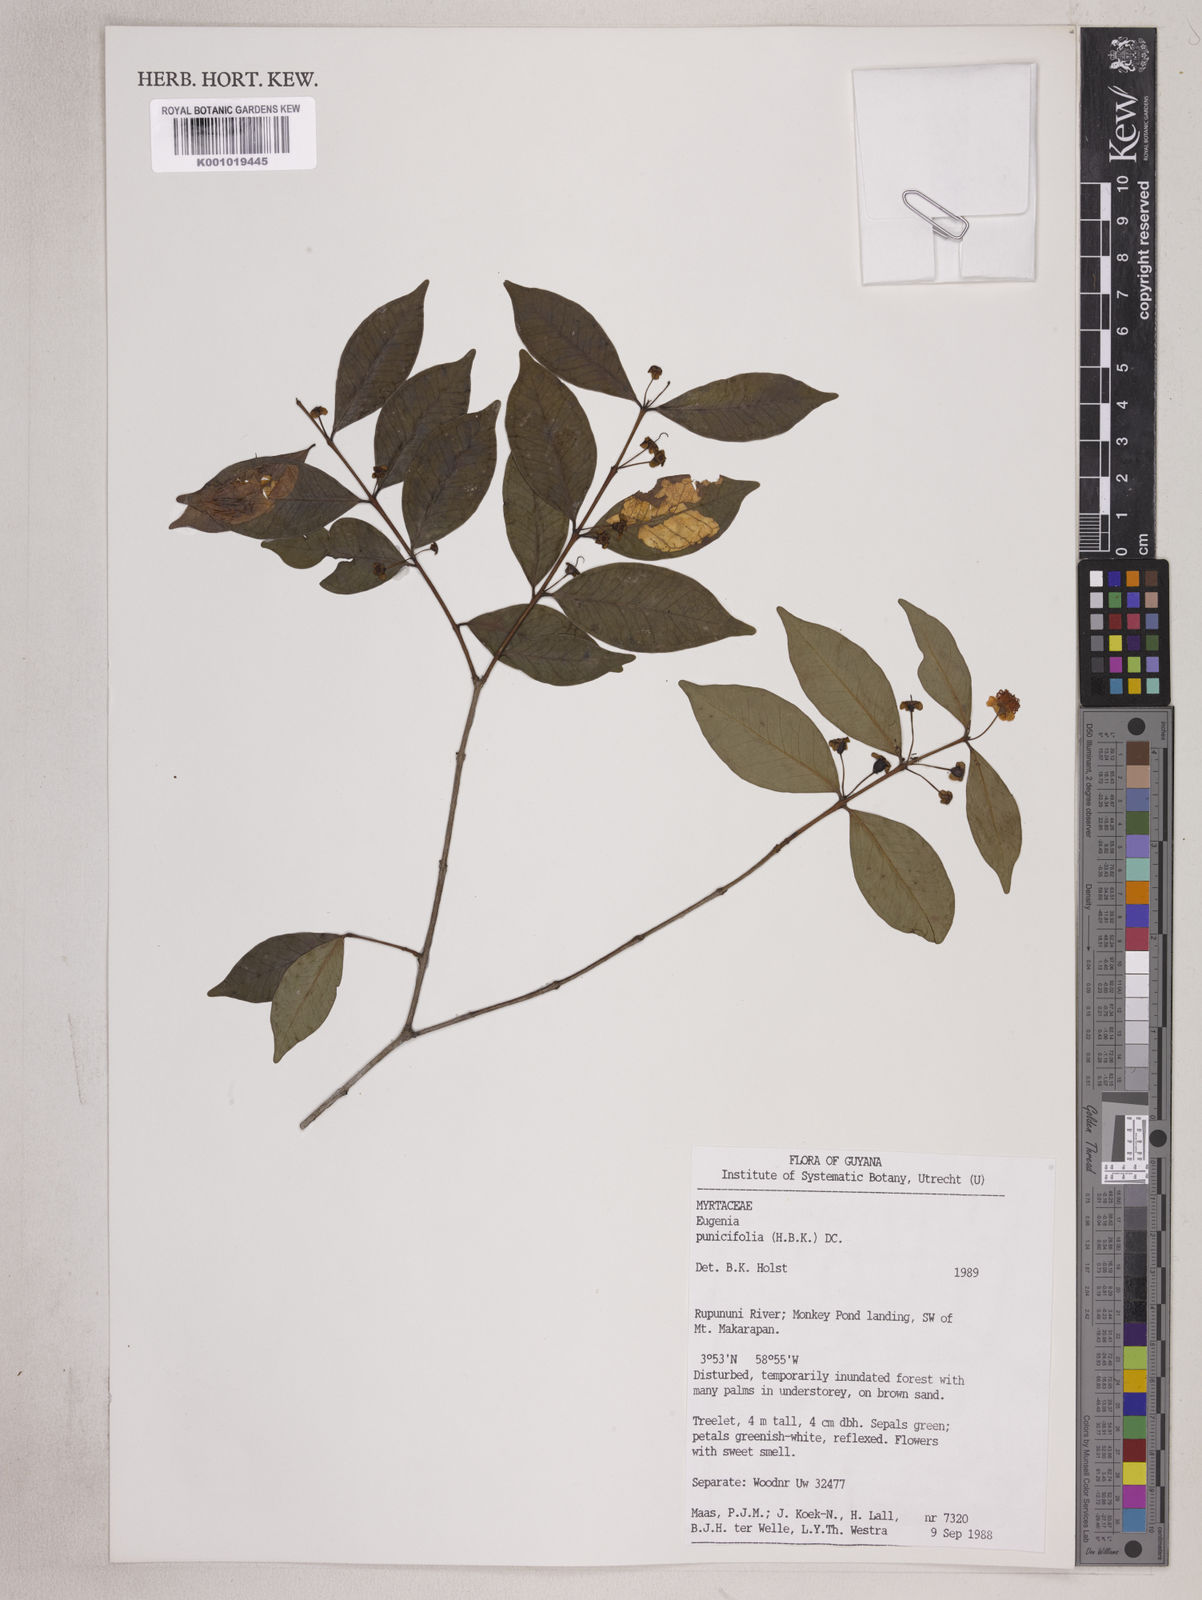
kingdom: Plantae
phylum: Tracheophyta
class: Magnoliopsida
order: Myrtales
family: Myrtaceae
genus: Eugenia
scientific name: Eugenia punicifolia
